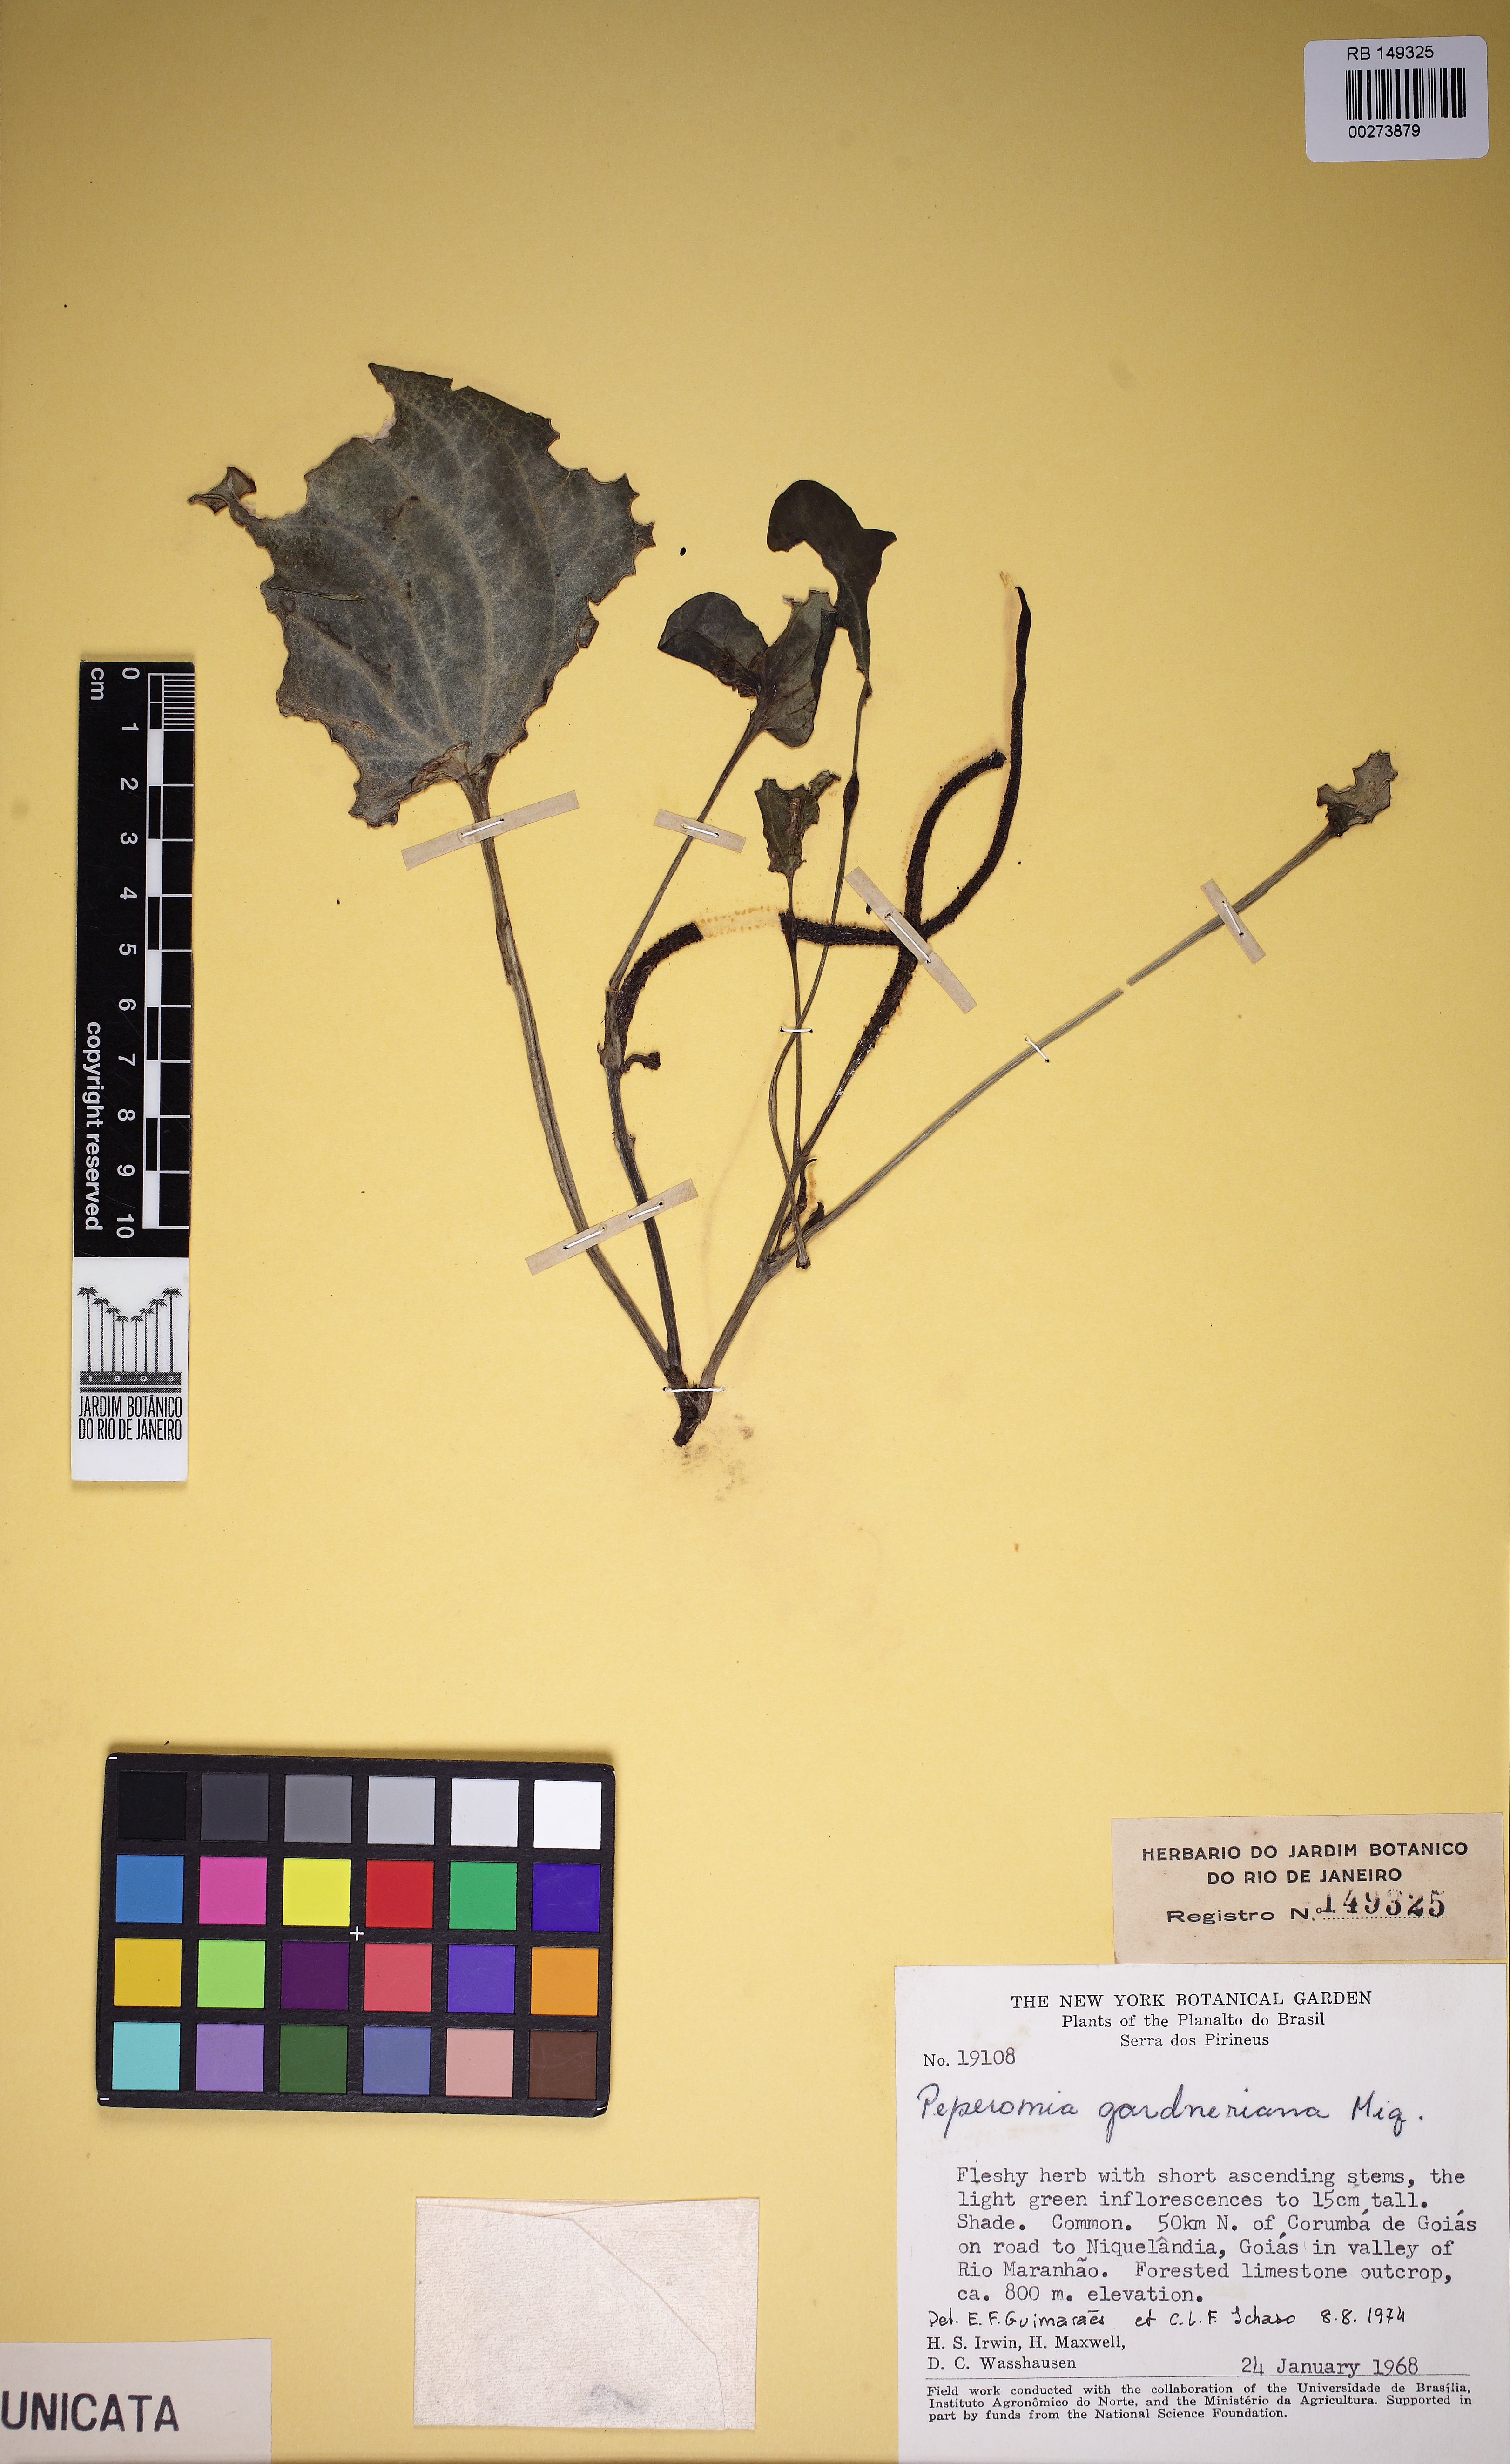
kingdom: Plantae
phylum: Tracheophyta
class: Magnoliopsida
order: Piperales
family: Piperaceae
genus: Peperomia
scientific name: Peperomia gardneriana
